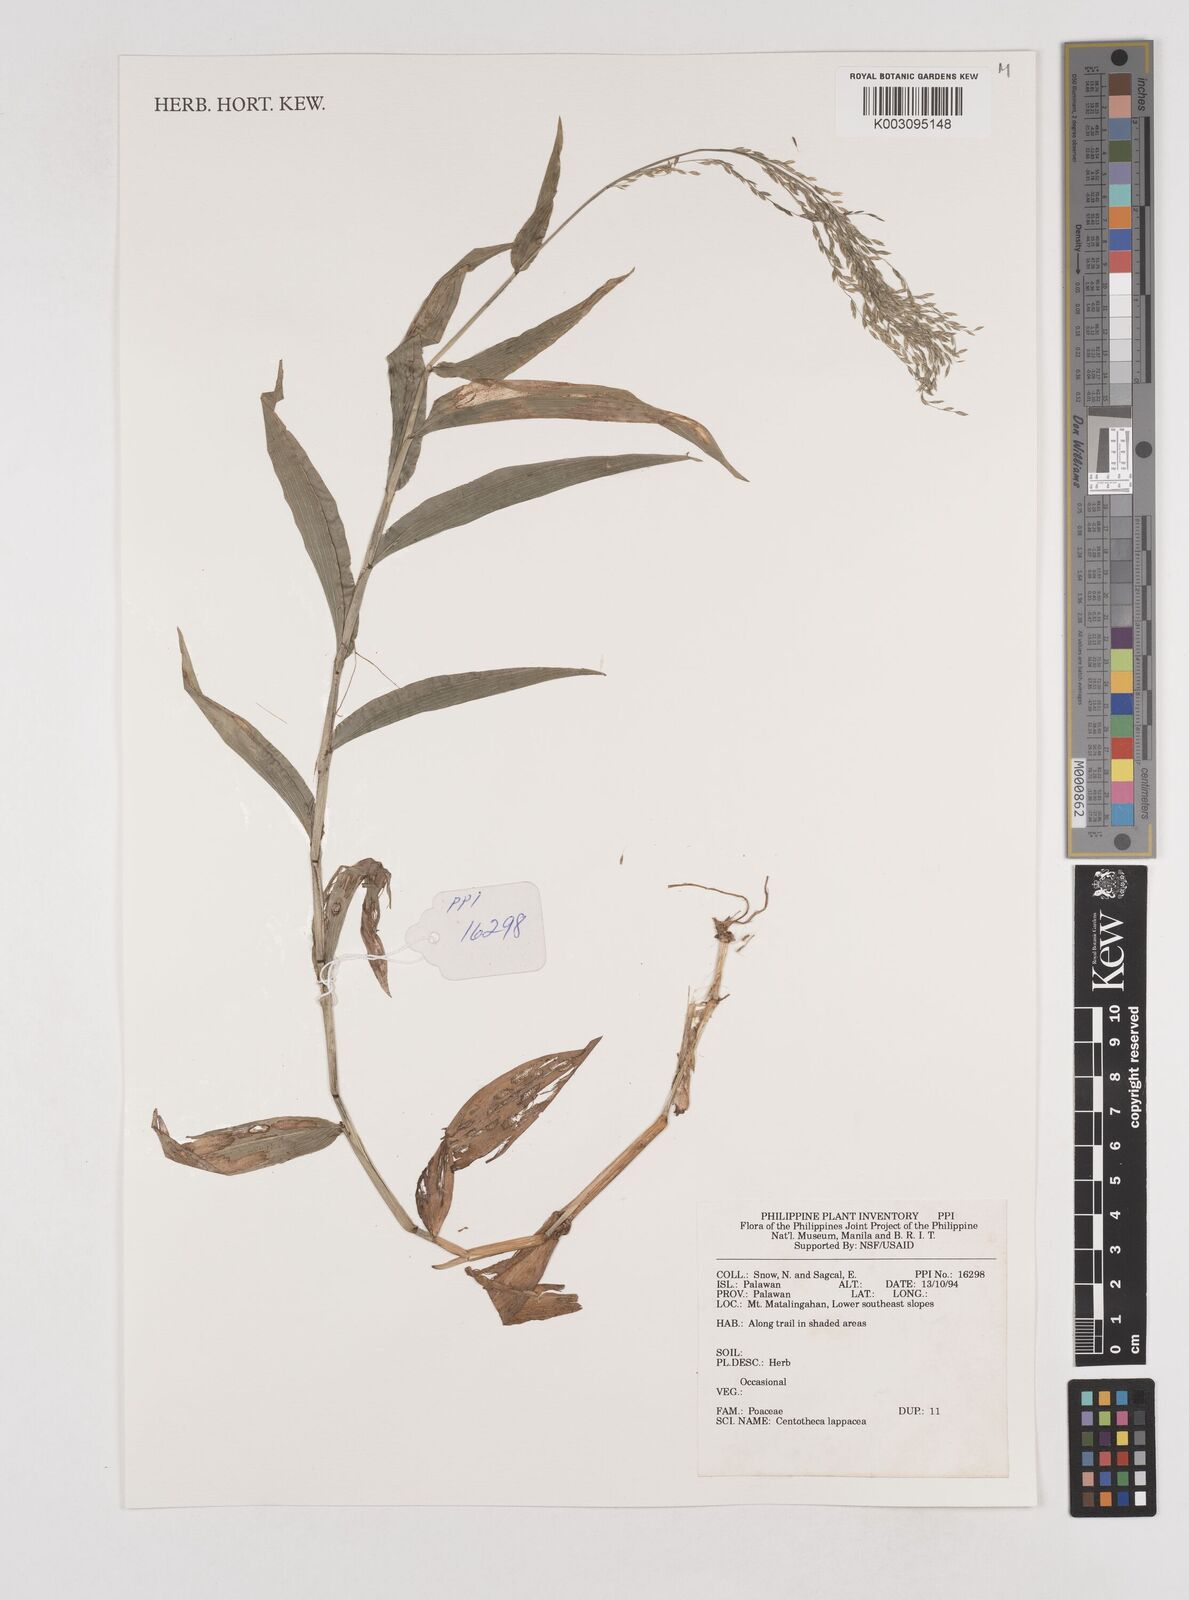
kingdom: Plantae
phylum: Tracheophyta
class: Liliopsida
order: Poales
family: Poaceae
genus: Centotheca
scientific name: Centotheca lappacea
